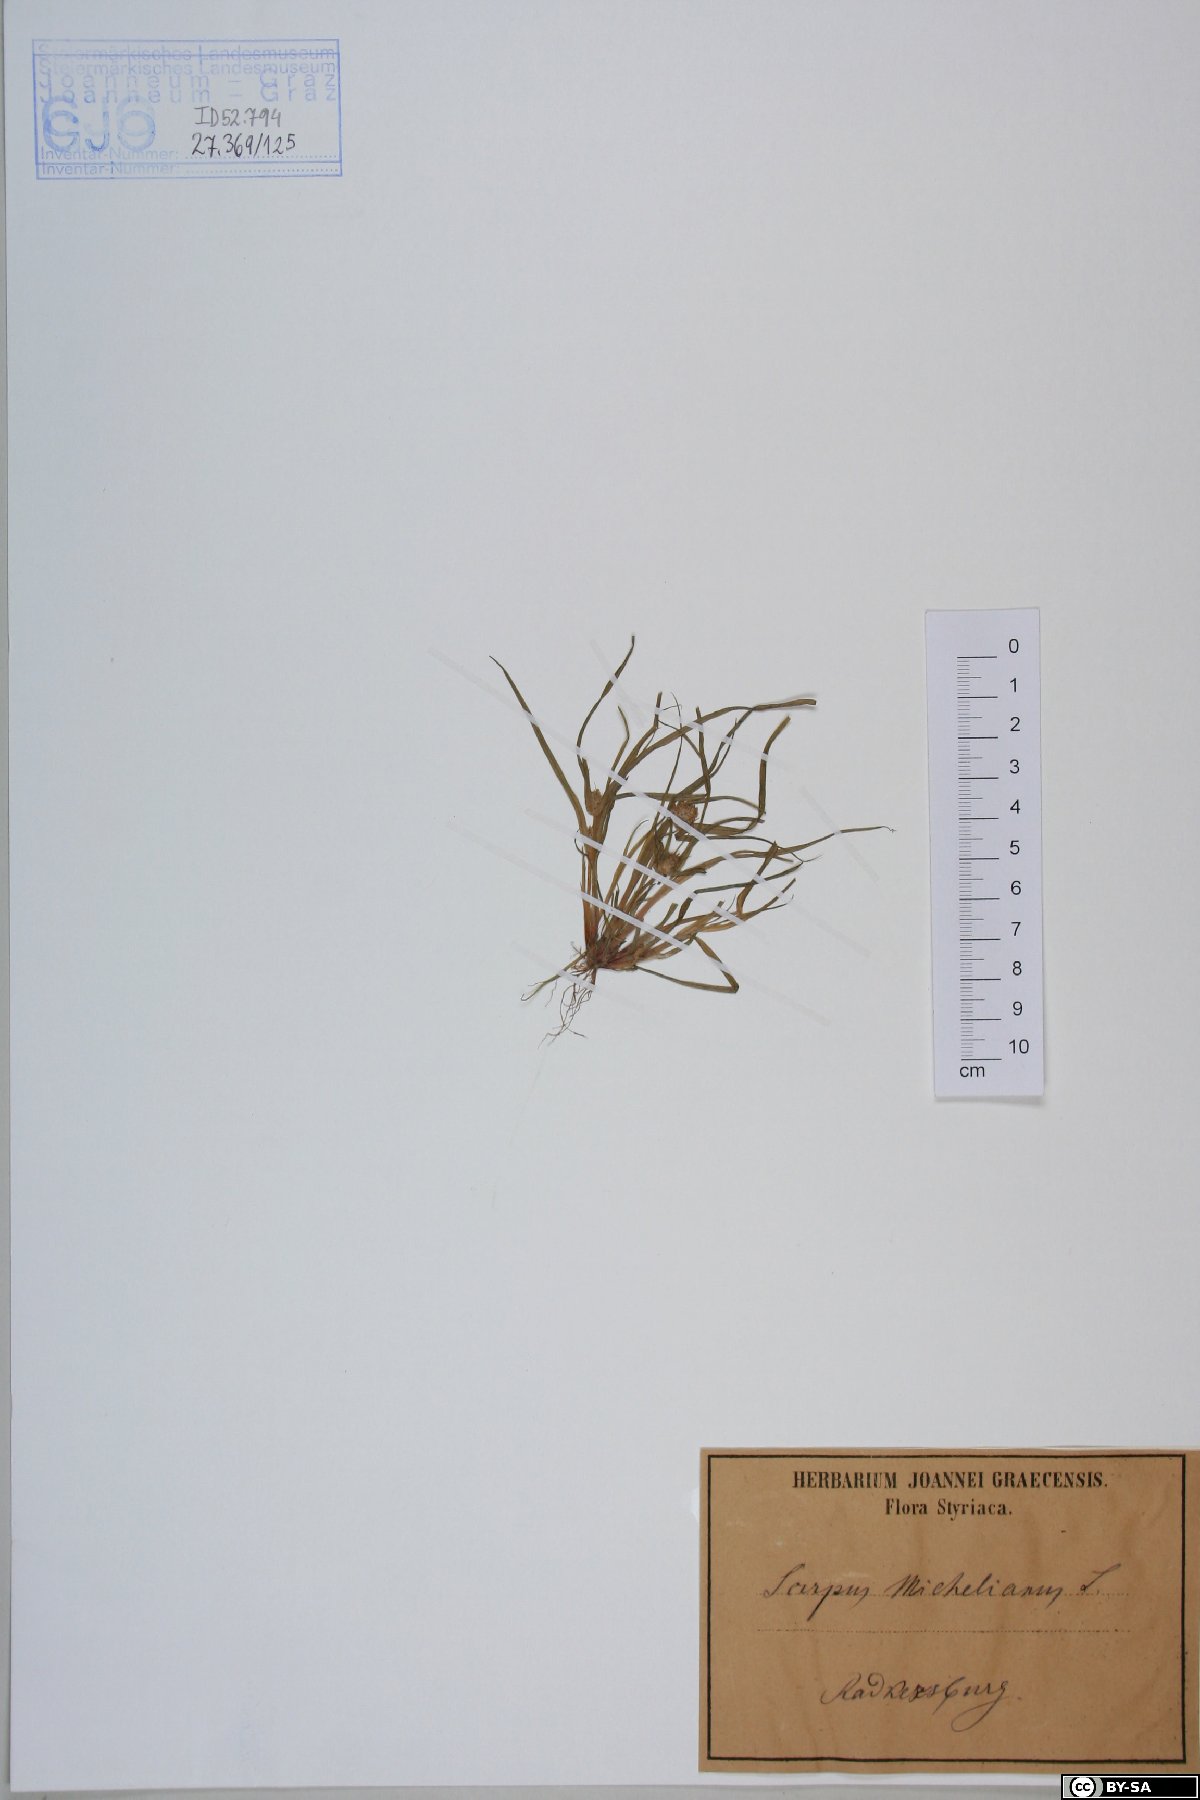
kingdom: Plantae
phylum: Tracheophyta
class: Liliopsida
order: Poales
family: Cyperaceae
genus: Cyperus
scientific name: Cyperus michelianus
